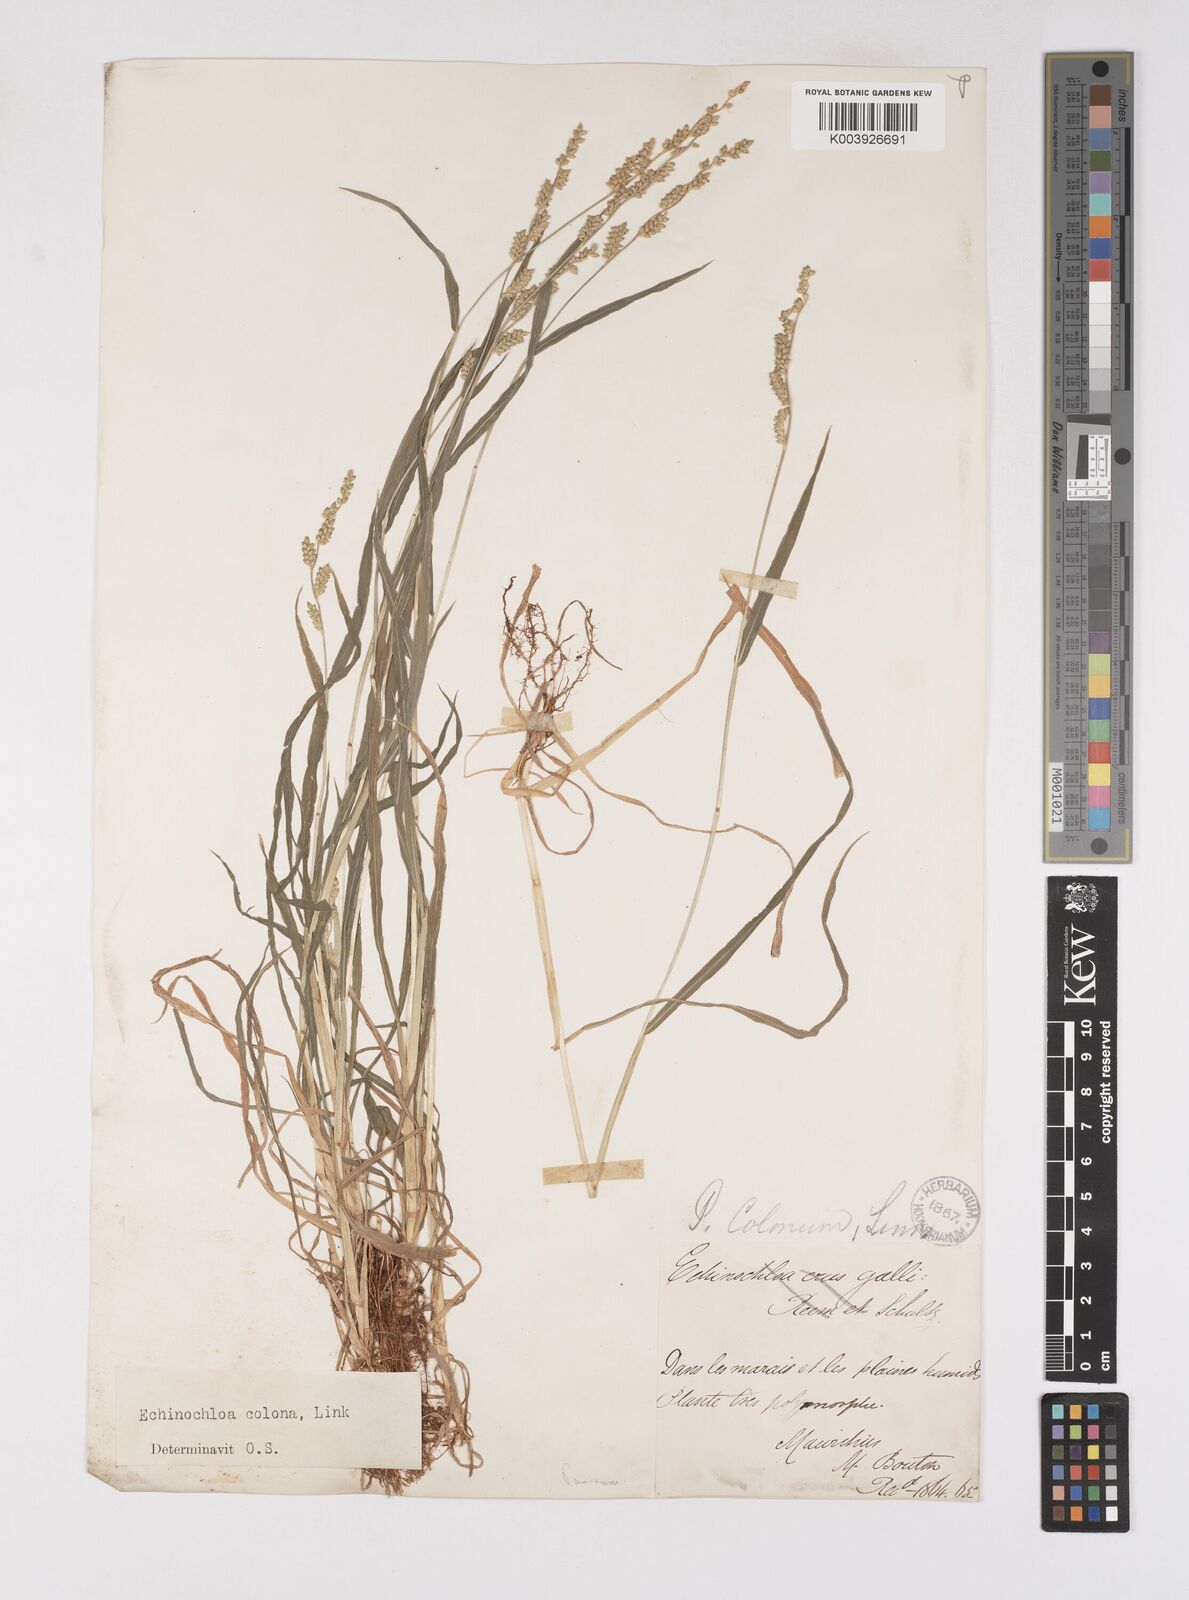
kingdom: Plantae
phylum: Tracheophyta
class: Liliopsida
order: Poales
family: Poaceae
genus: Echinochloa
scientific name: Echinochloa colonum
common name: Jungle rice
